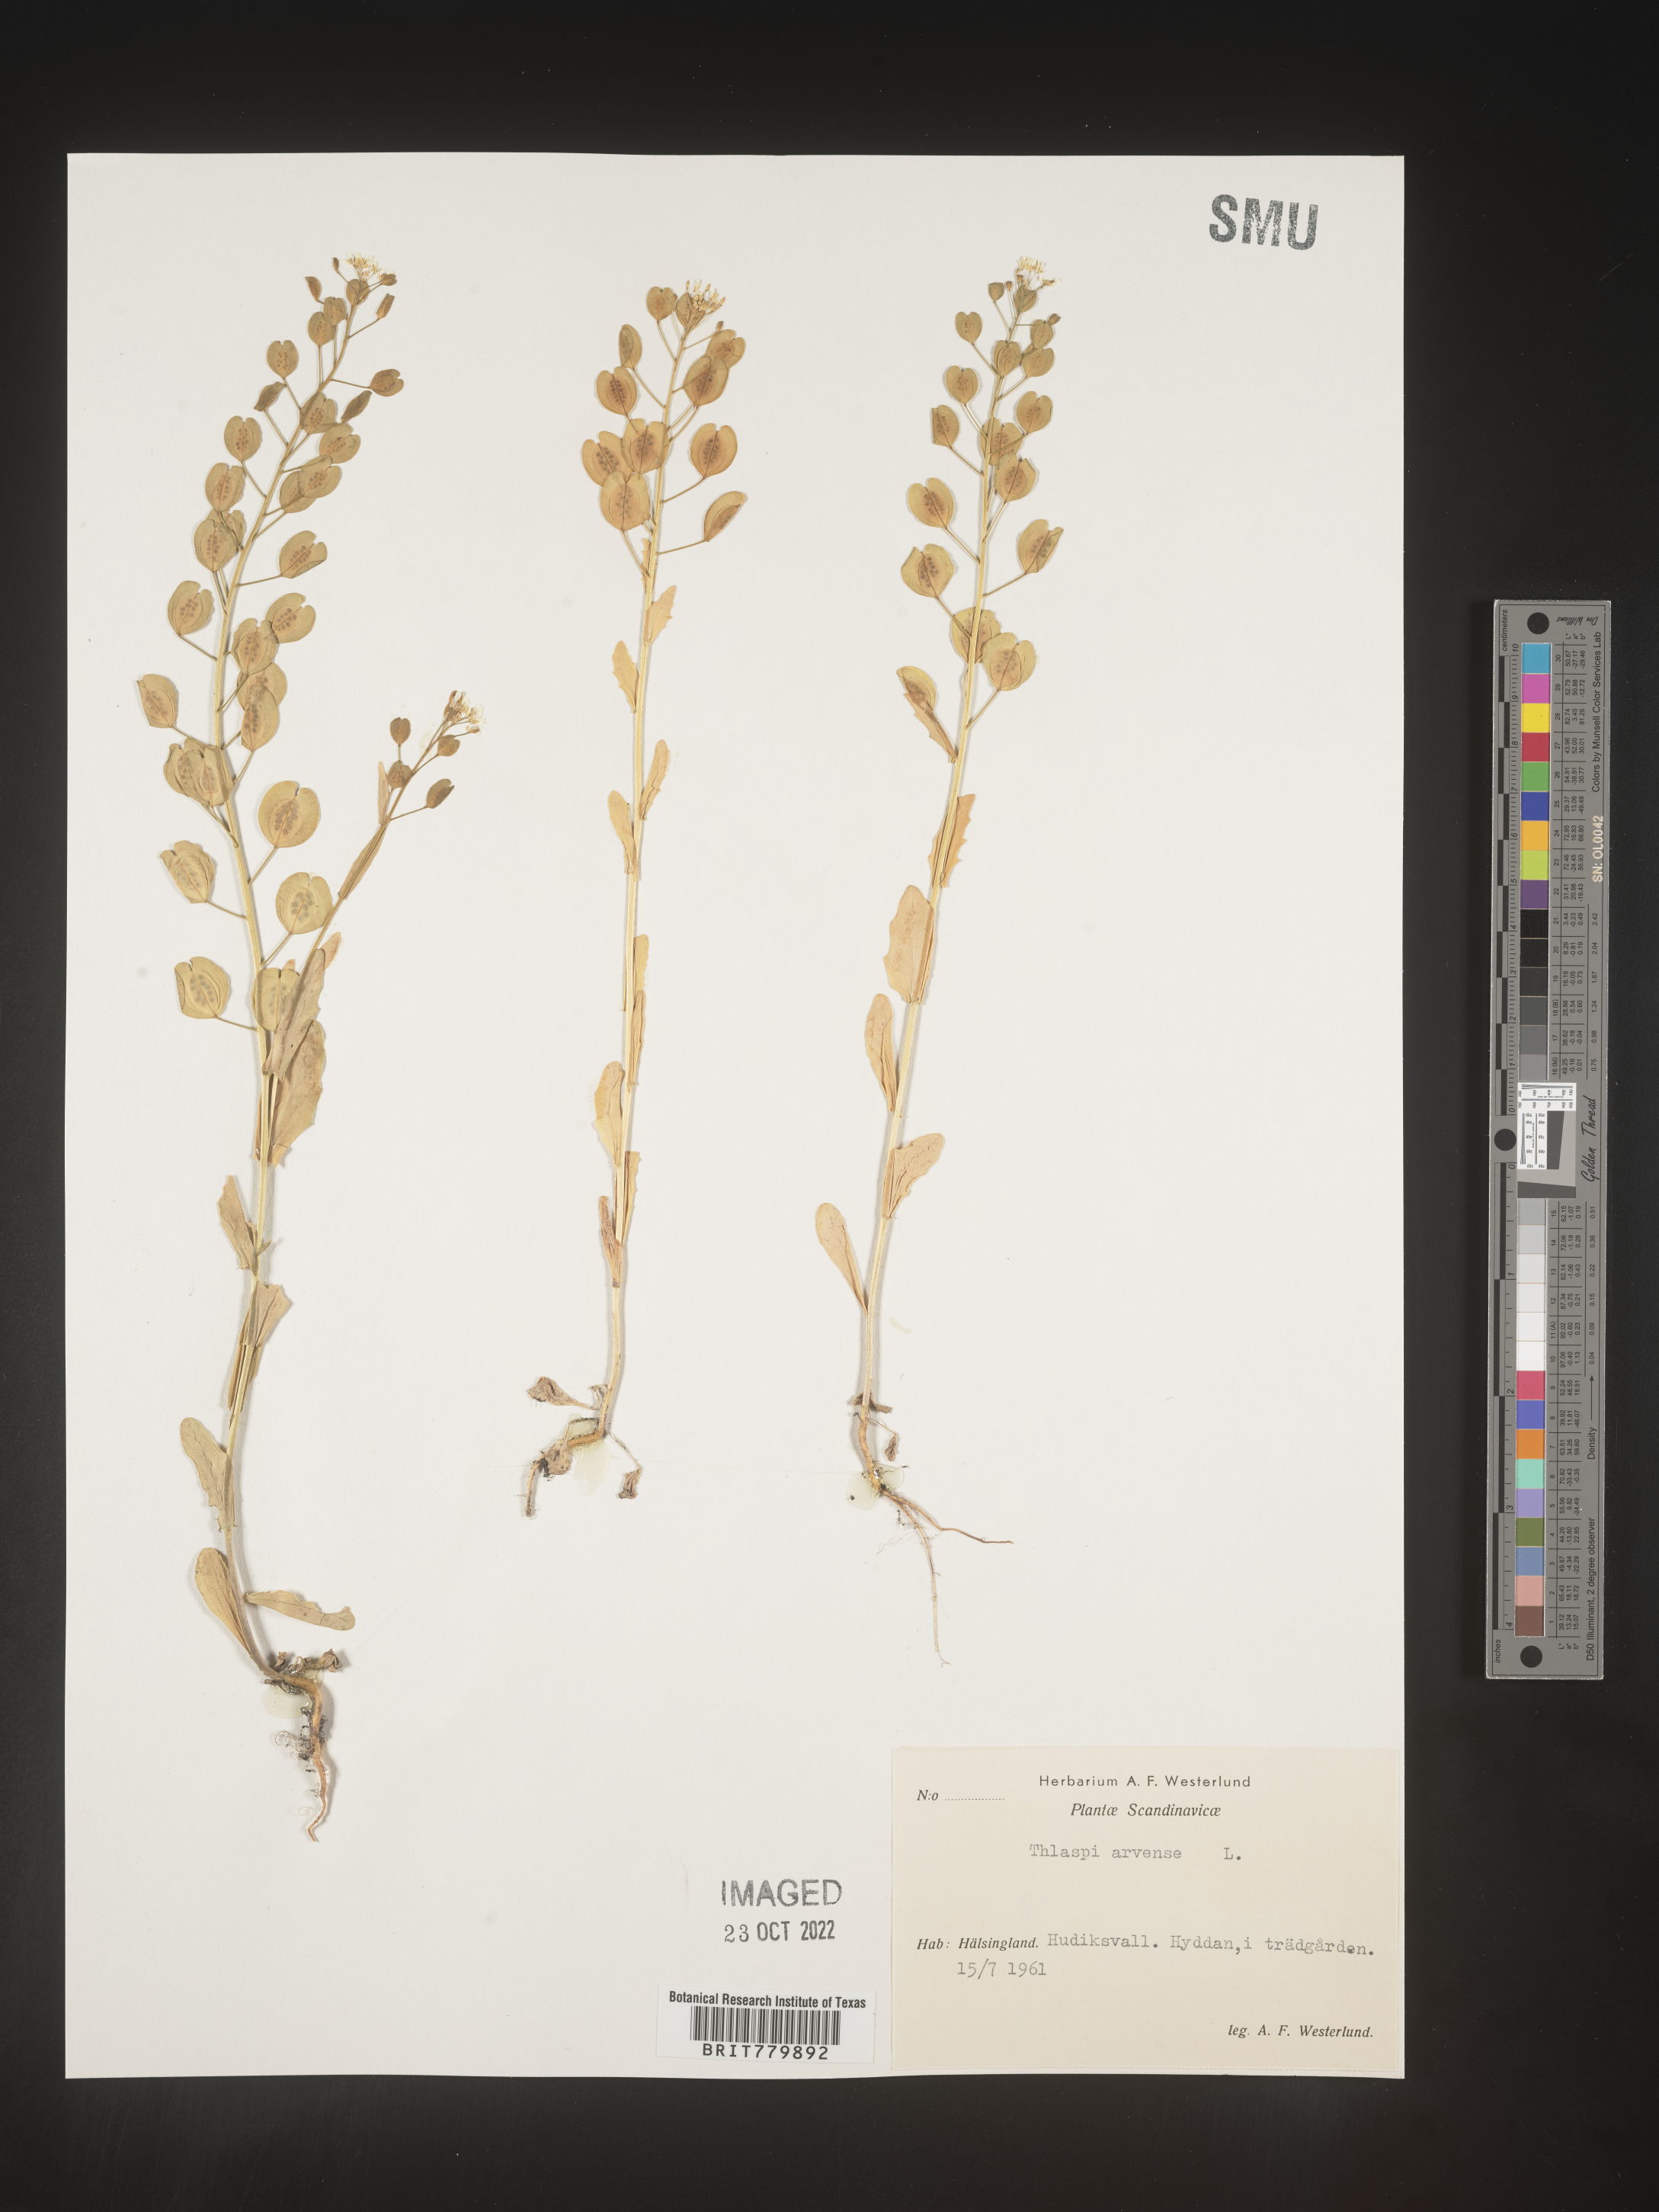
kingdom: Plantae
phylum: Tracheophyta
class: Magnoliopsida
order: Brassicales
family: Brassicaceae
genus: Thlaspi
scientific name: Thlaspi
